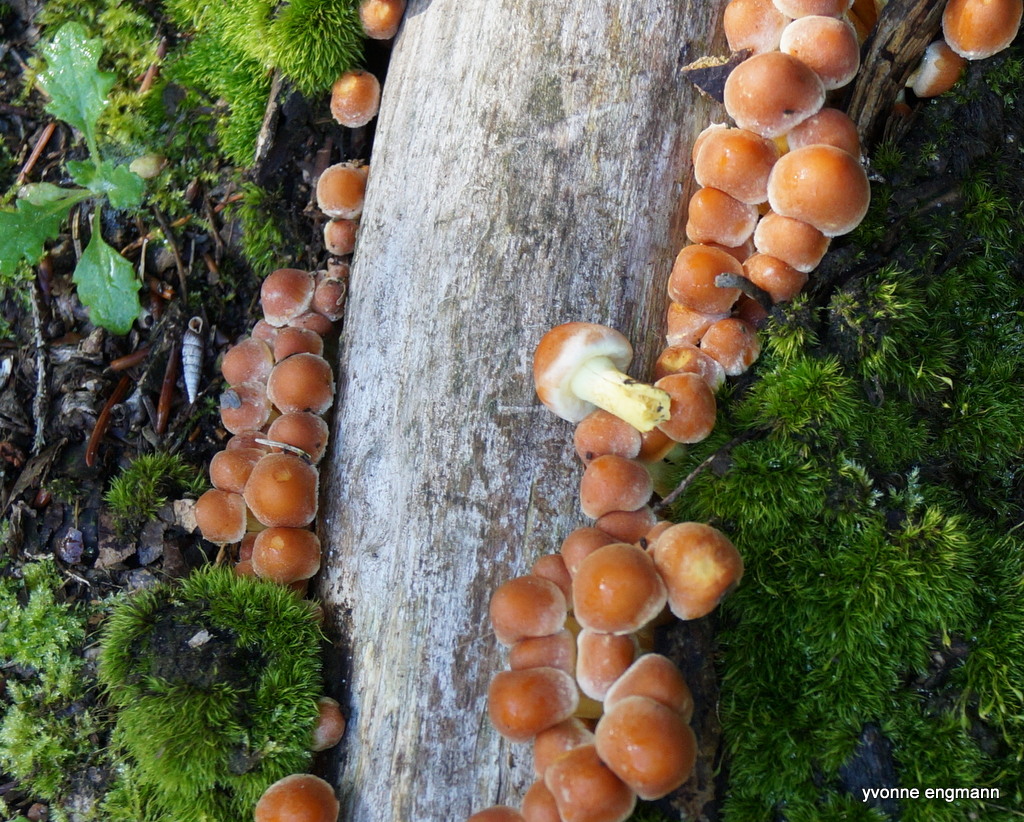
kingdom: Fungi
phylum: Basidiomycota
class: Agaricomycetes
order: Agaricales
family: Strophariaceae
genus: Hypholoma
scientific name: Hypholoma fasciculare
